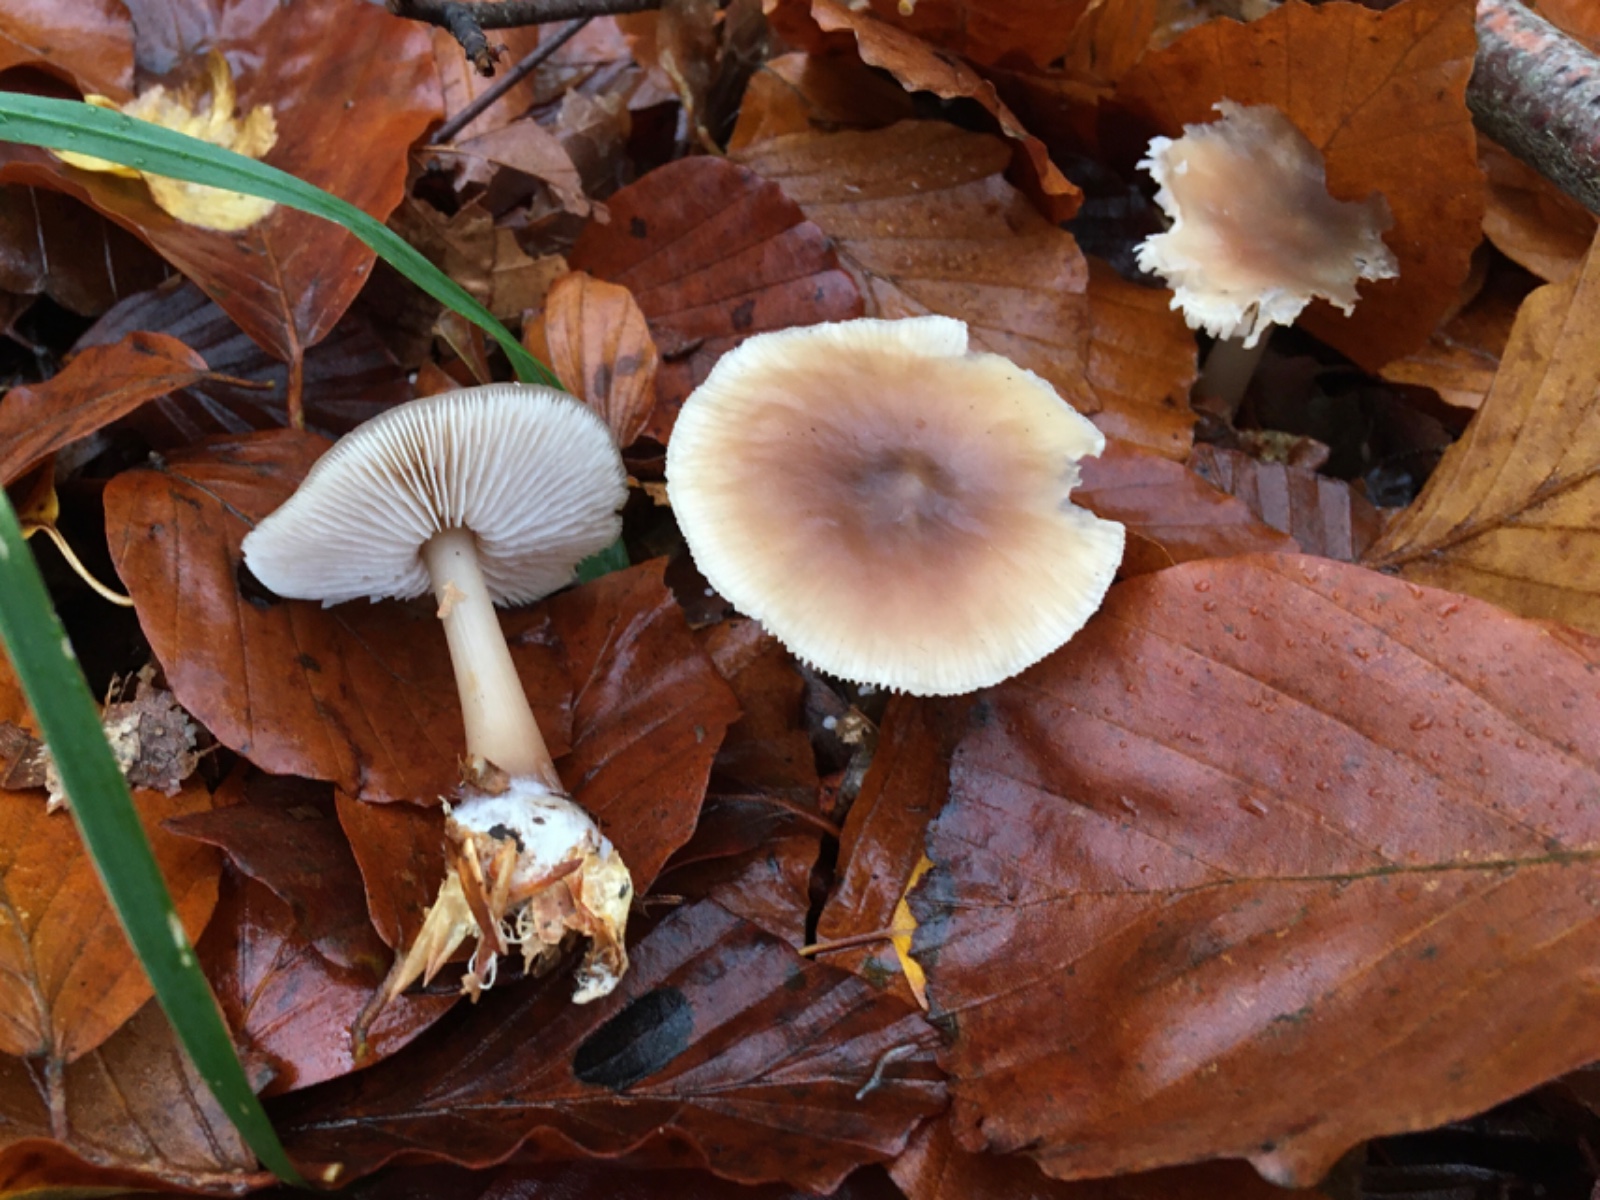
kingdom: Fungi
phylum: Basidiomycota
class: Agaricomycetes
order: Agaricales
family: Omphalotaceae
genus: Rhodocollybia
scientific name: Rhodocollybia asema
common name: horngrå fladhat
